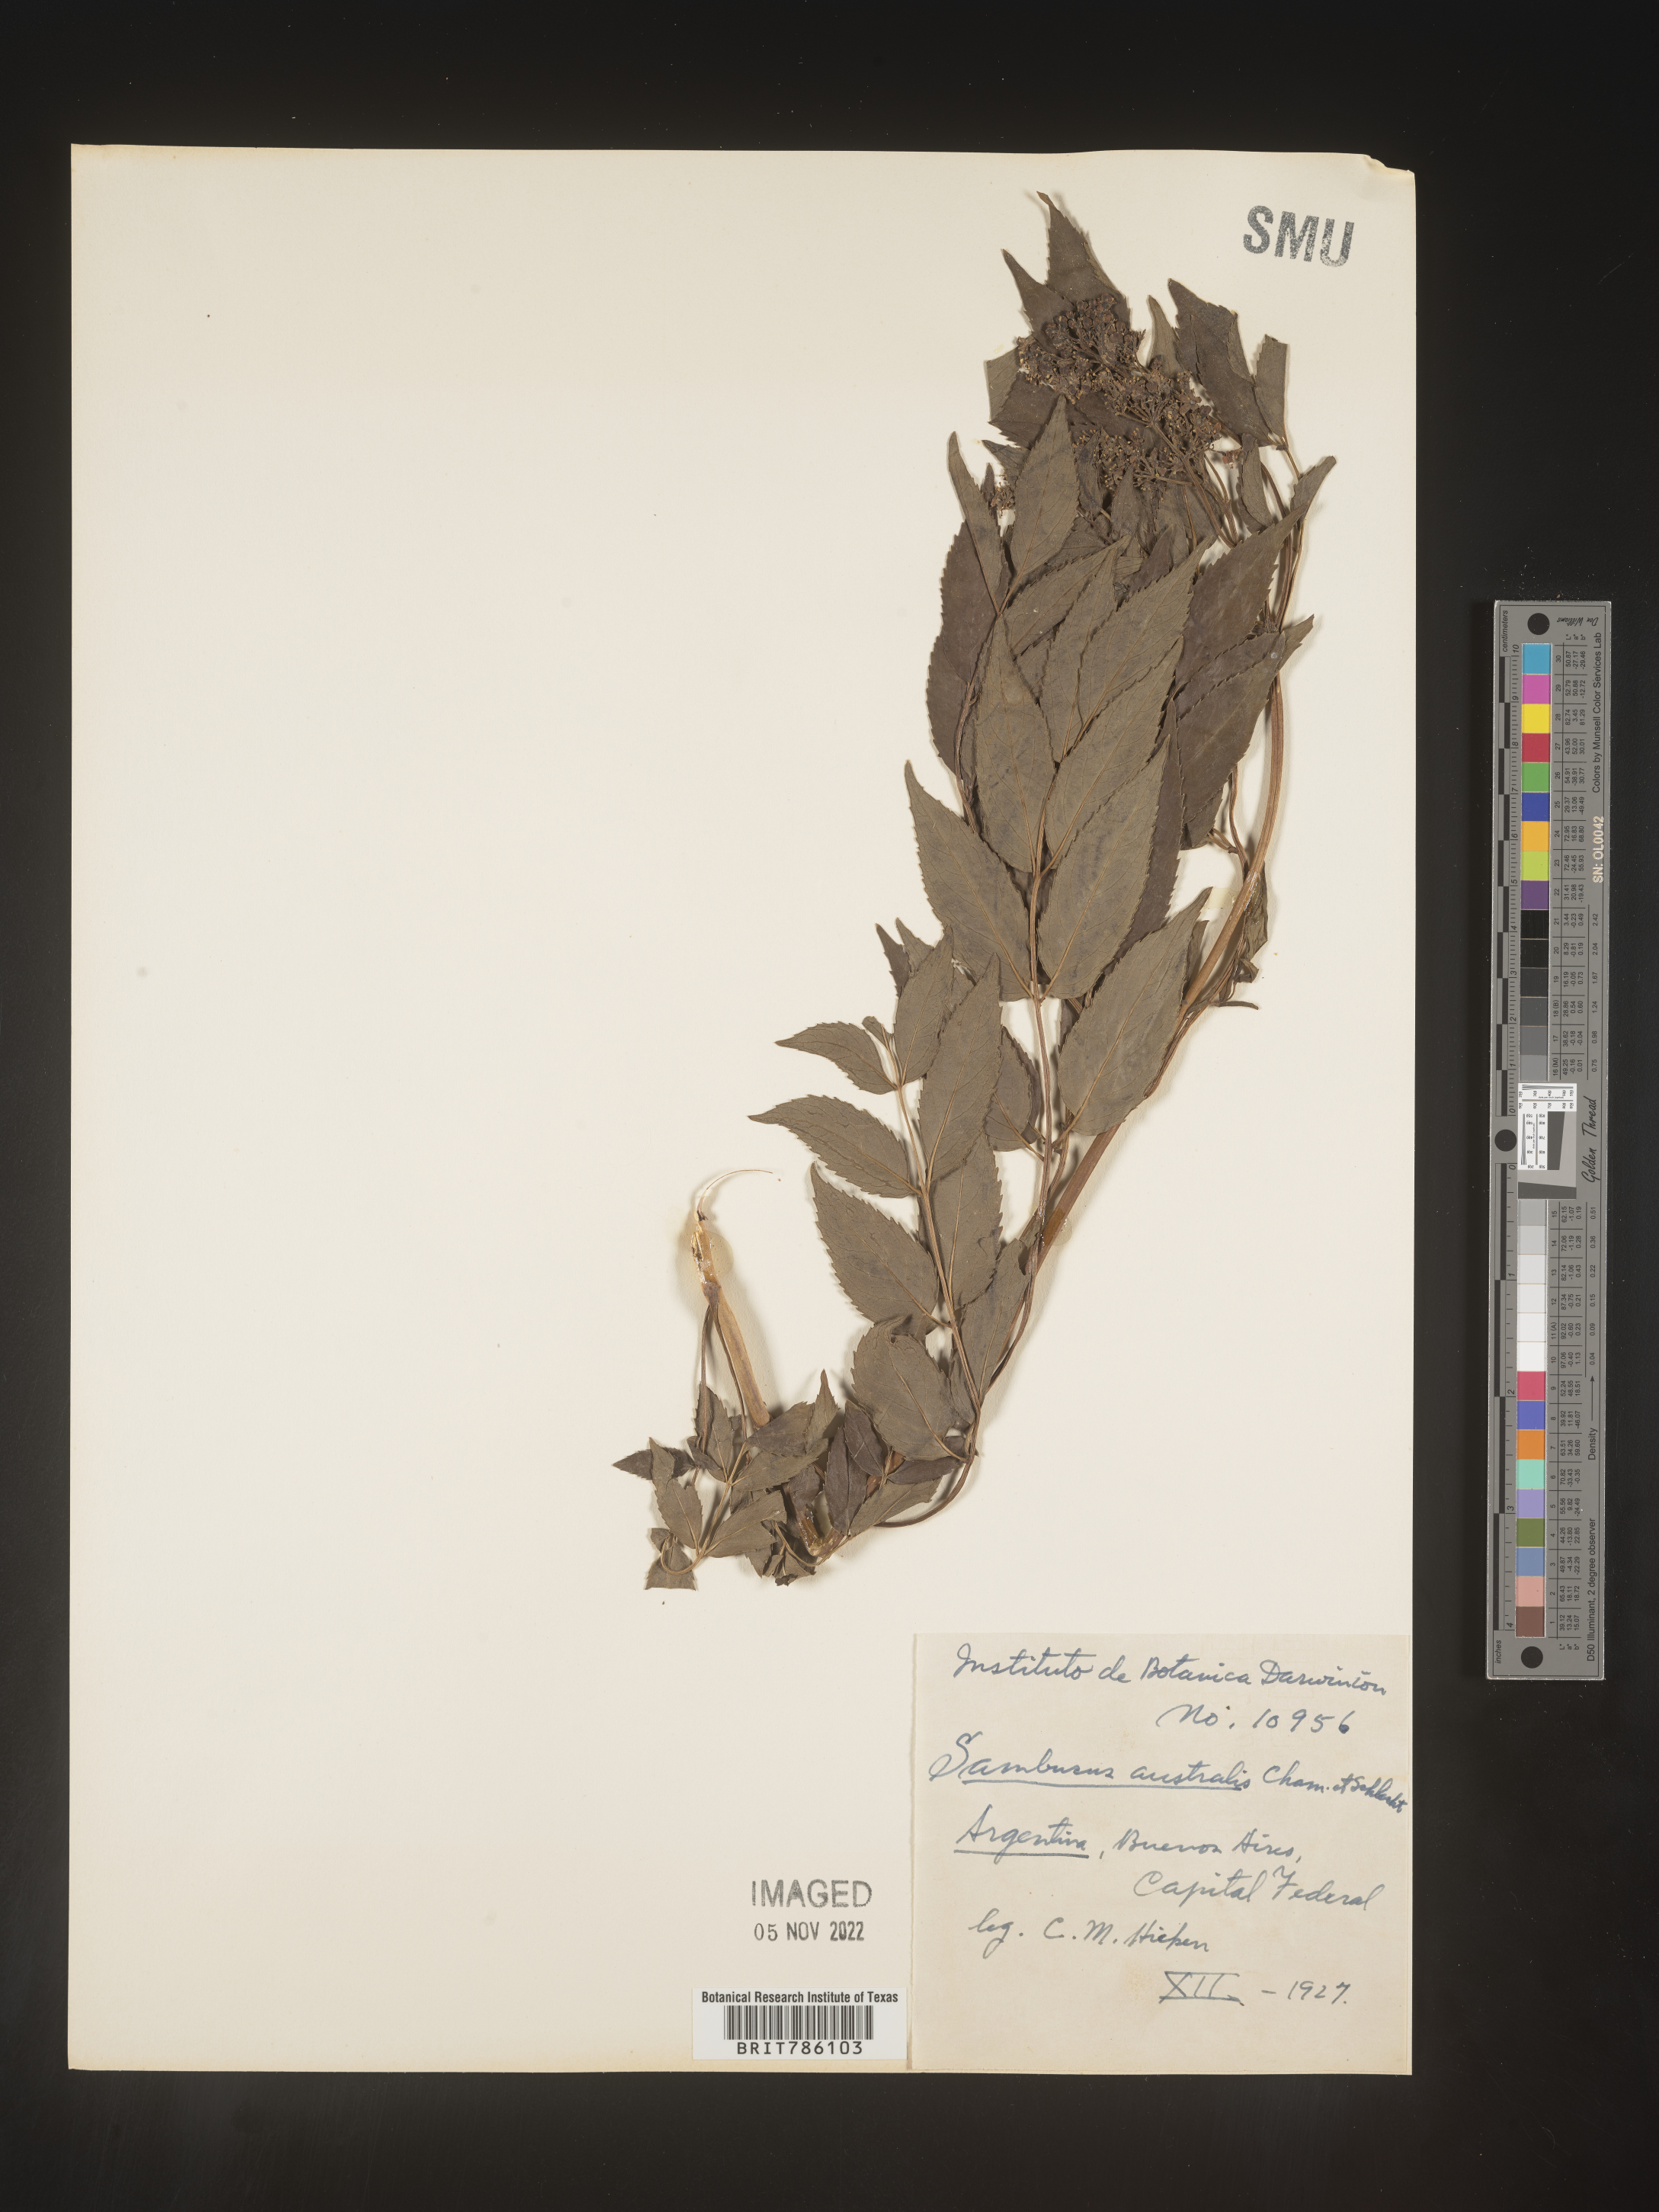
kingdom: Plantae
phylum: Tracheophyta
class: Magnoliopsida
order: Dipsacales
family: Viburnaceae
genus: Sambucus
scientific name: Sambucus
